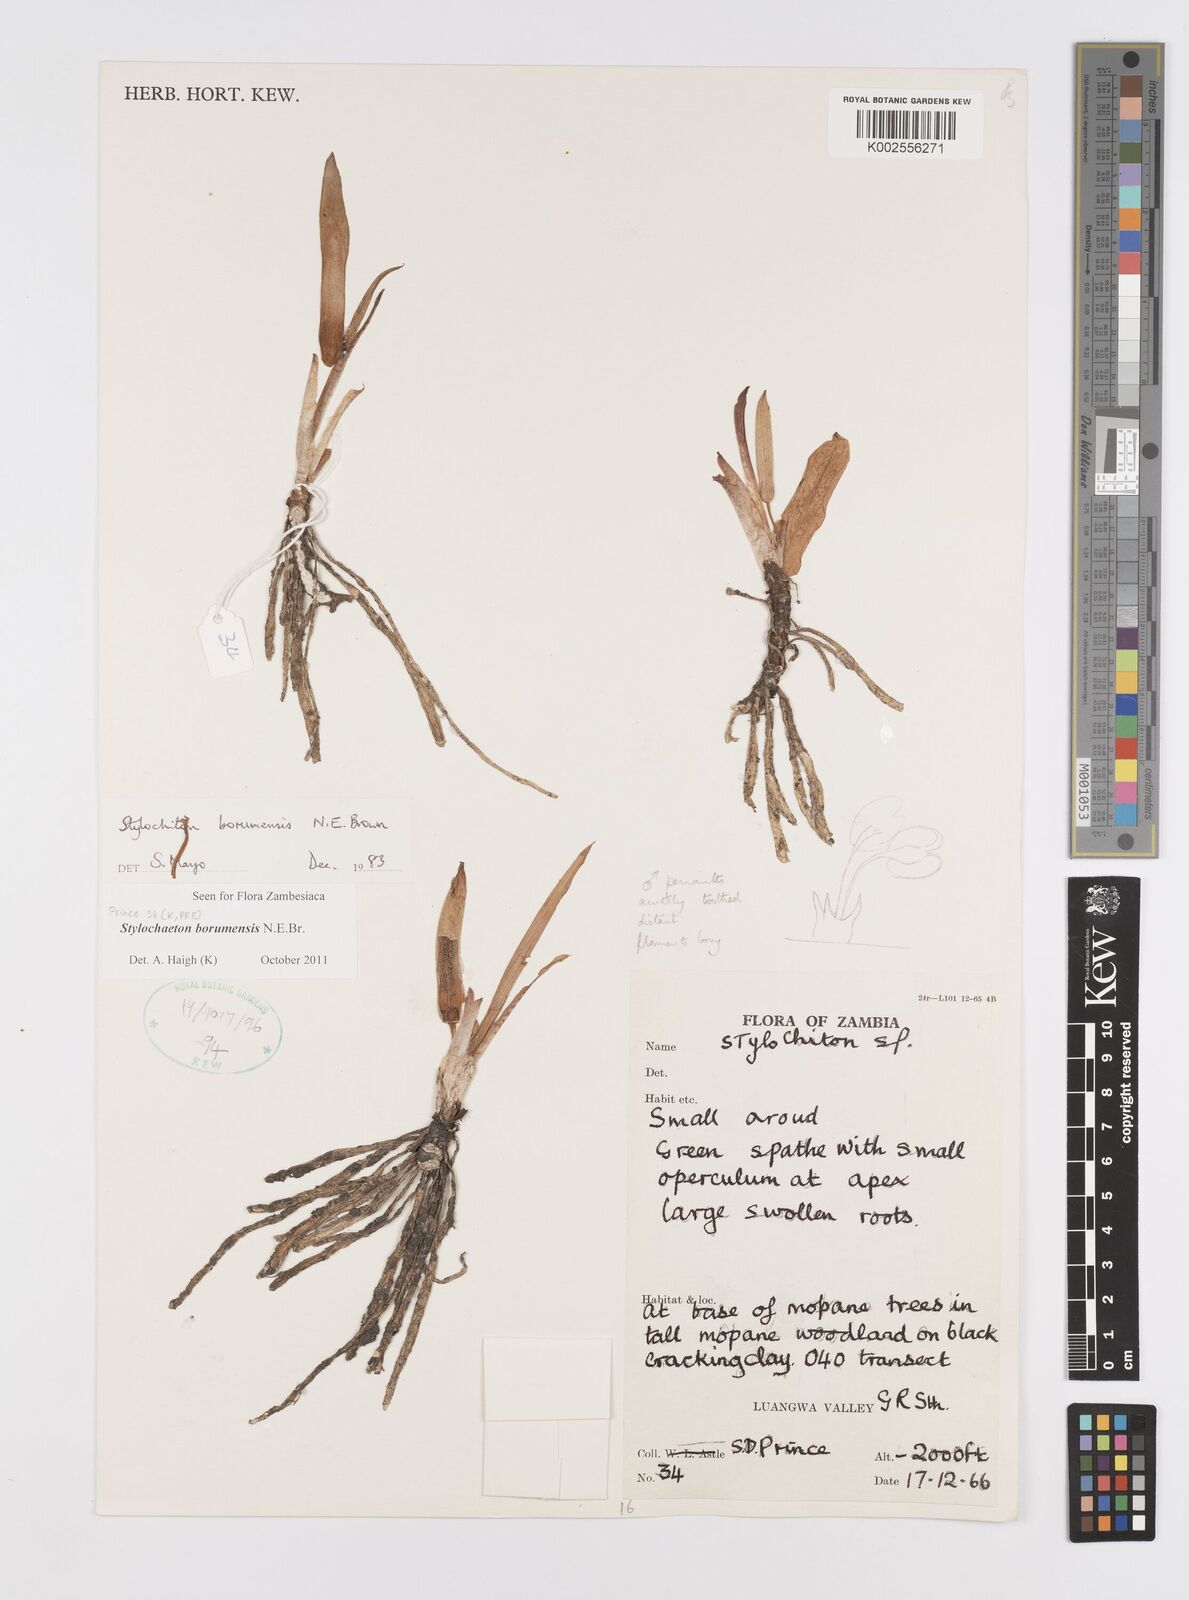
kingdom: Plantae
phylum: Tracheophyta
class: Liliopsida
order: Alismatales
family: Araceae
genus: Stylochaeton
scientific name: Stylochaeton borumense
